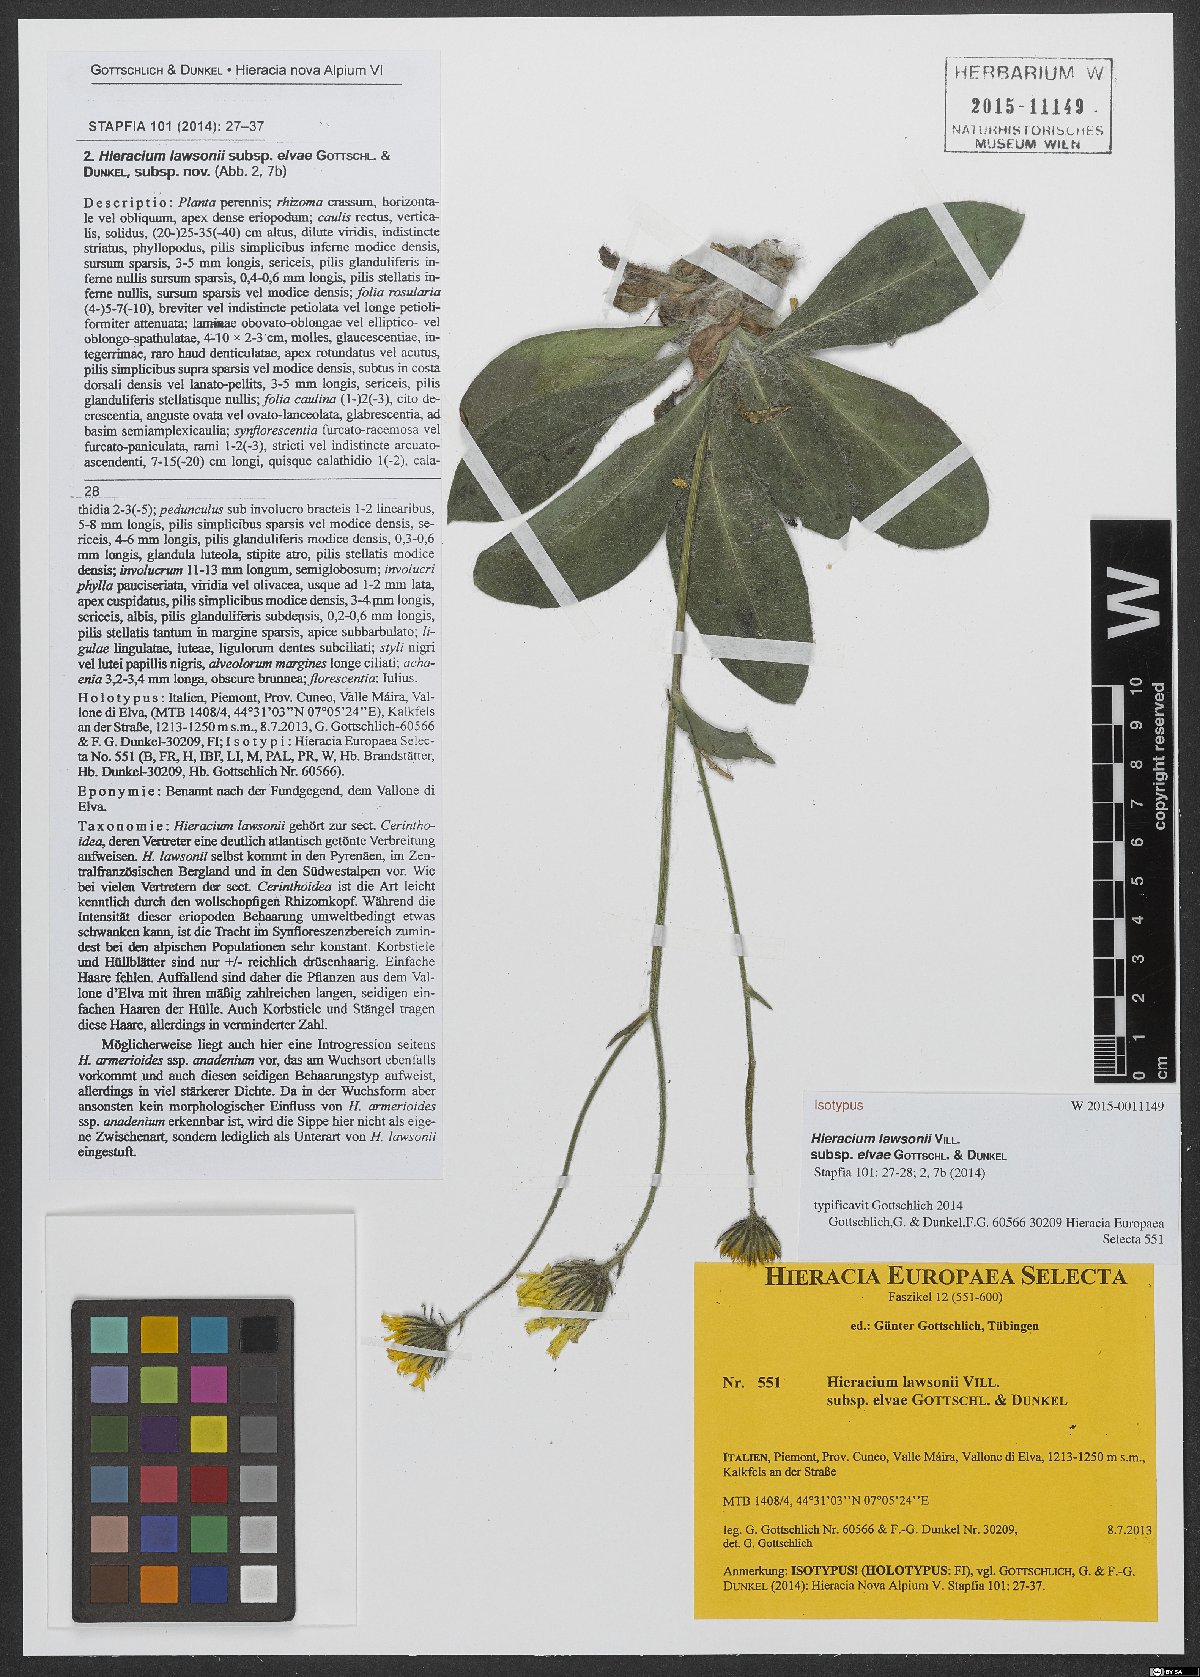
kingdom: Plantae
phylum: Tracheophyta
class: Magnoliopsida
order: Asterales
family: Asteraceae
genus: Hieracium
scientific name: Hieracium lawsonii
